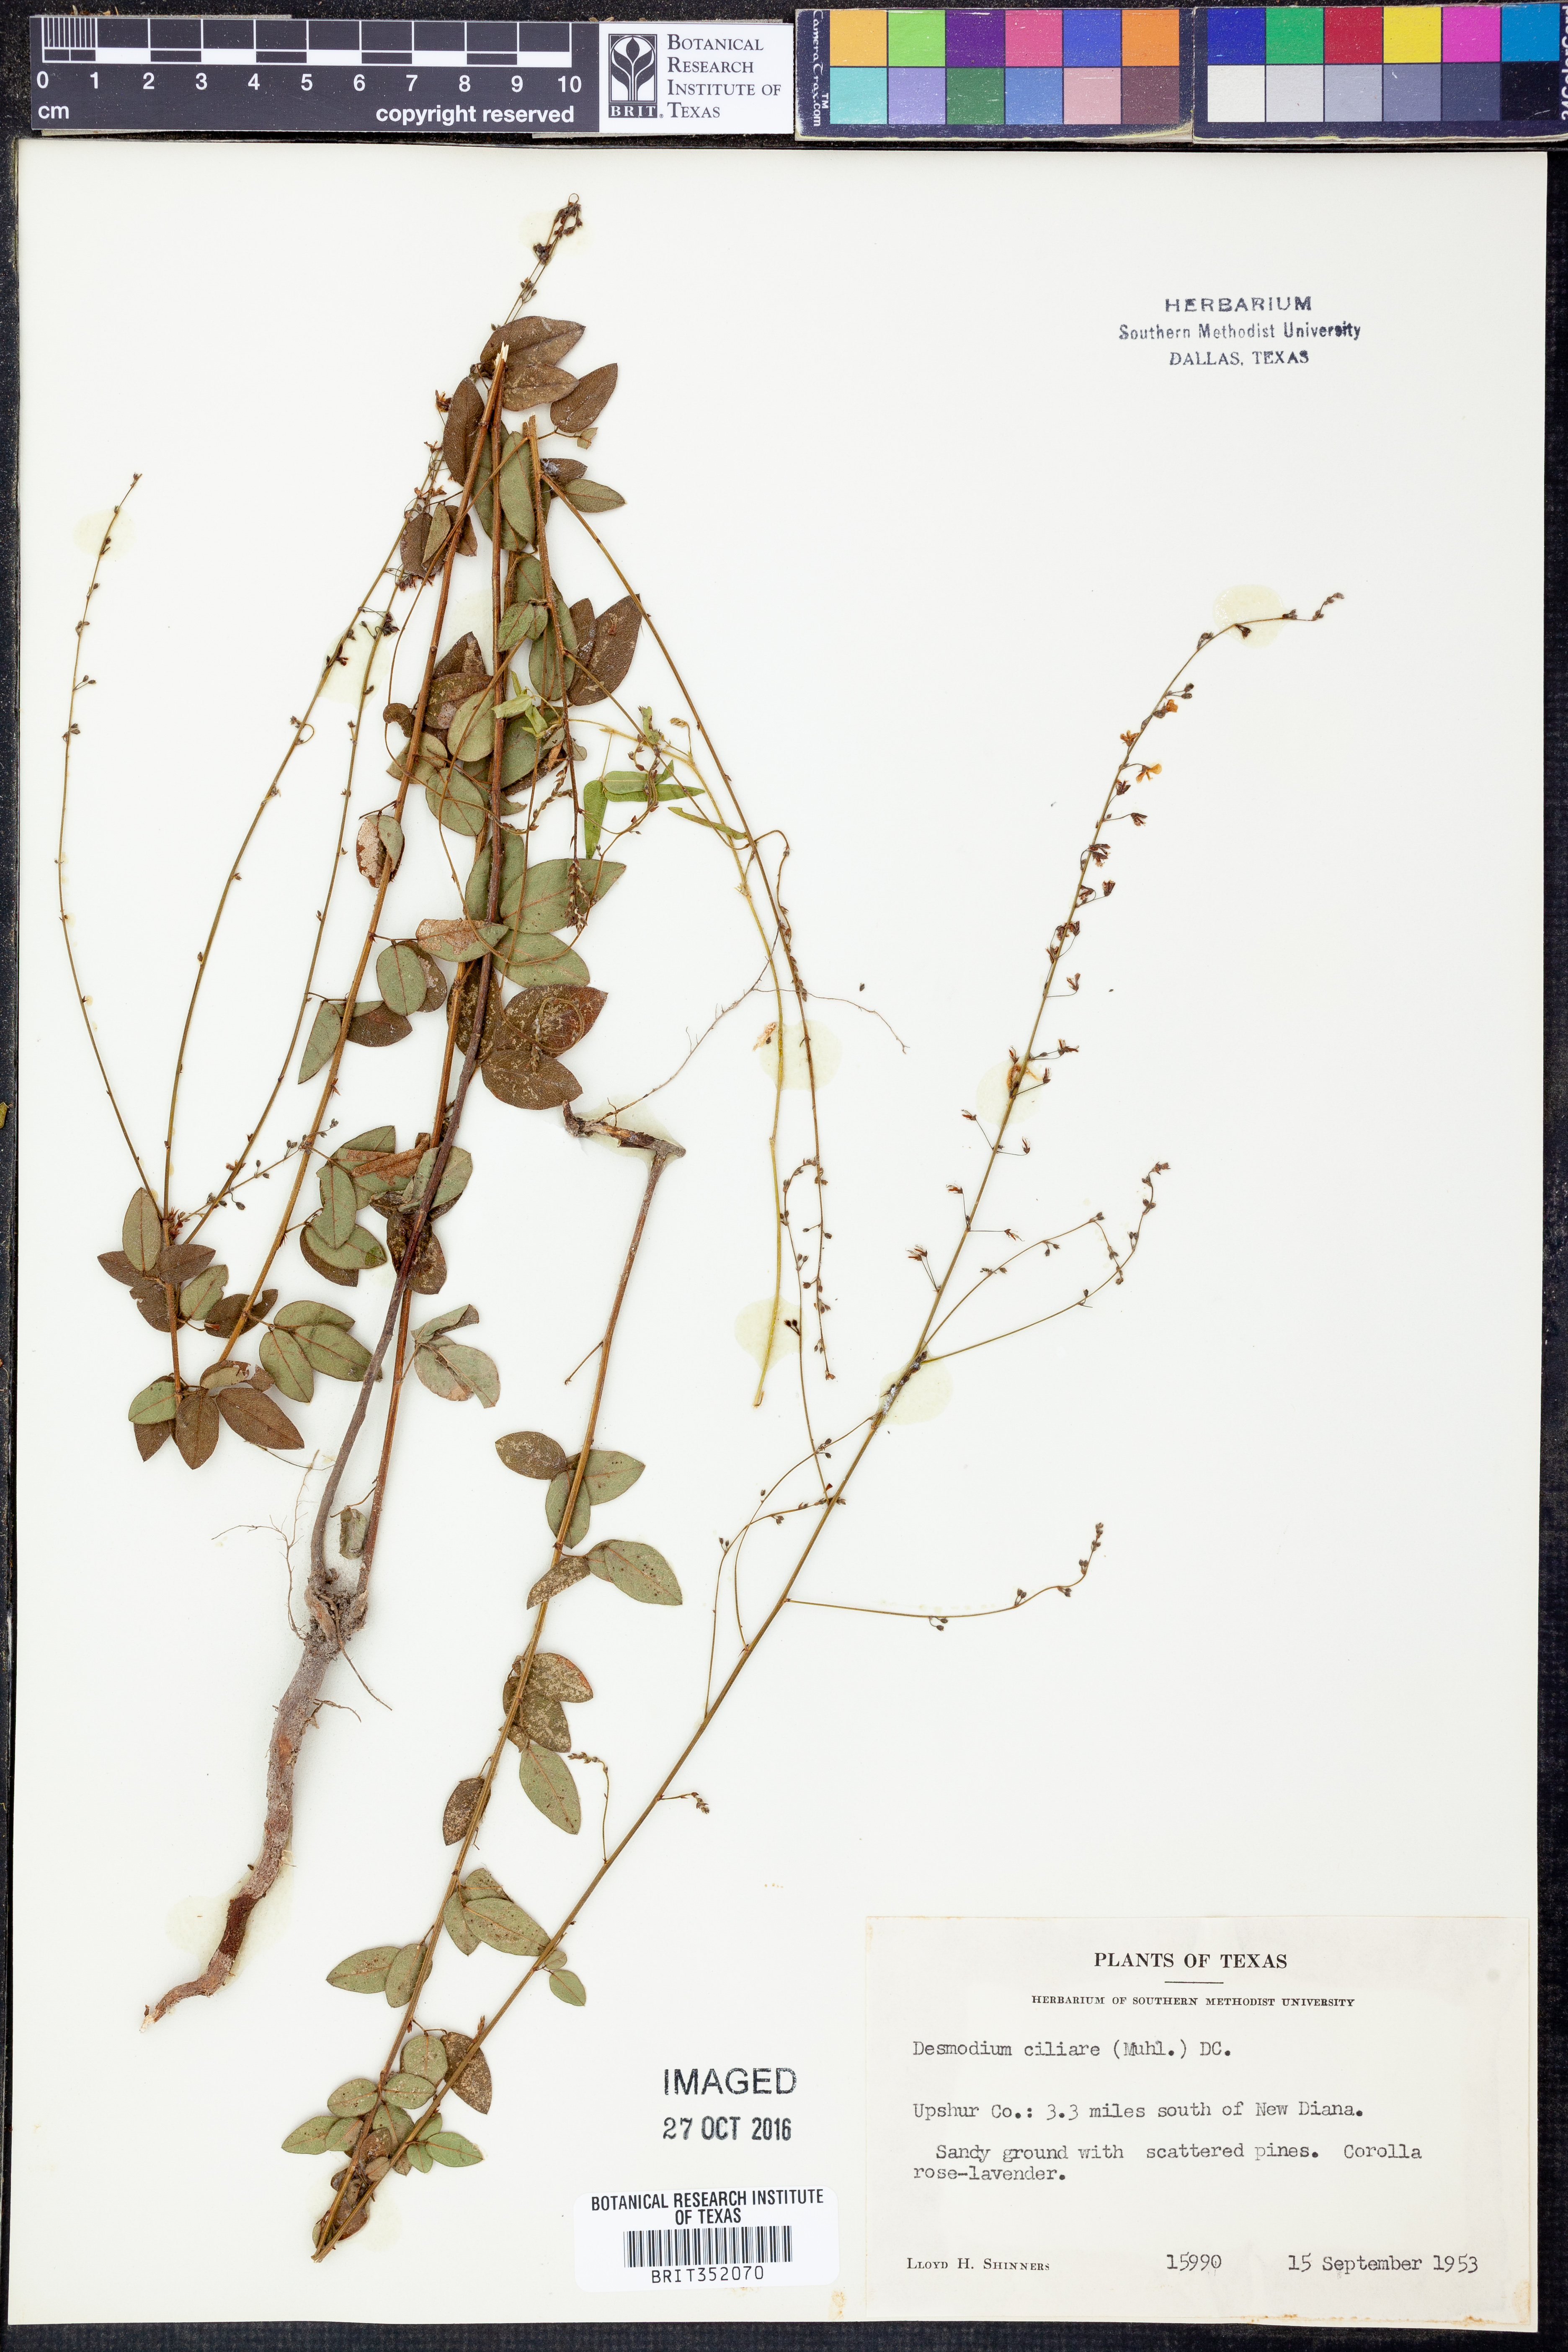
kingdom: Plantae
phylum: Tracheophyta
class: Magnoliopsida
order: Fabales
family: Fabaceae
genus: Desmodium
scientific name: Desmodium ciliare
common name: Hairy small-leaf ticktrefoil
